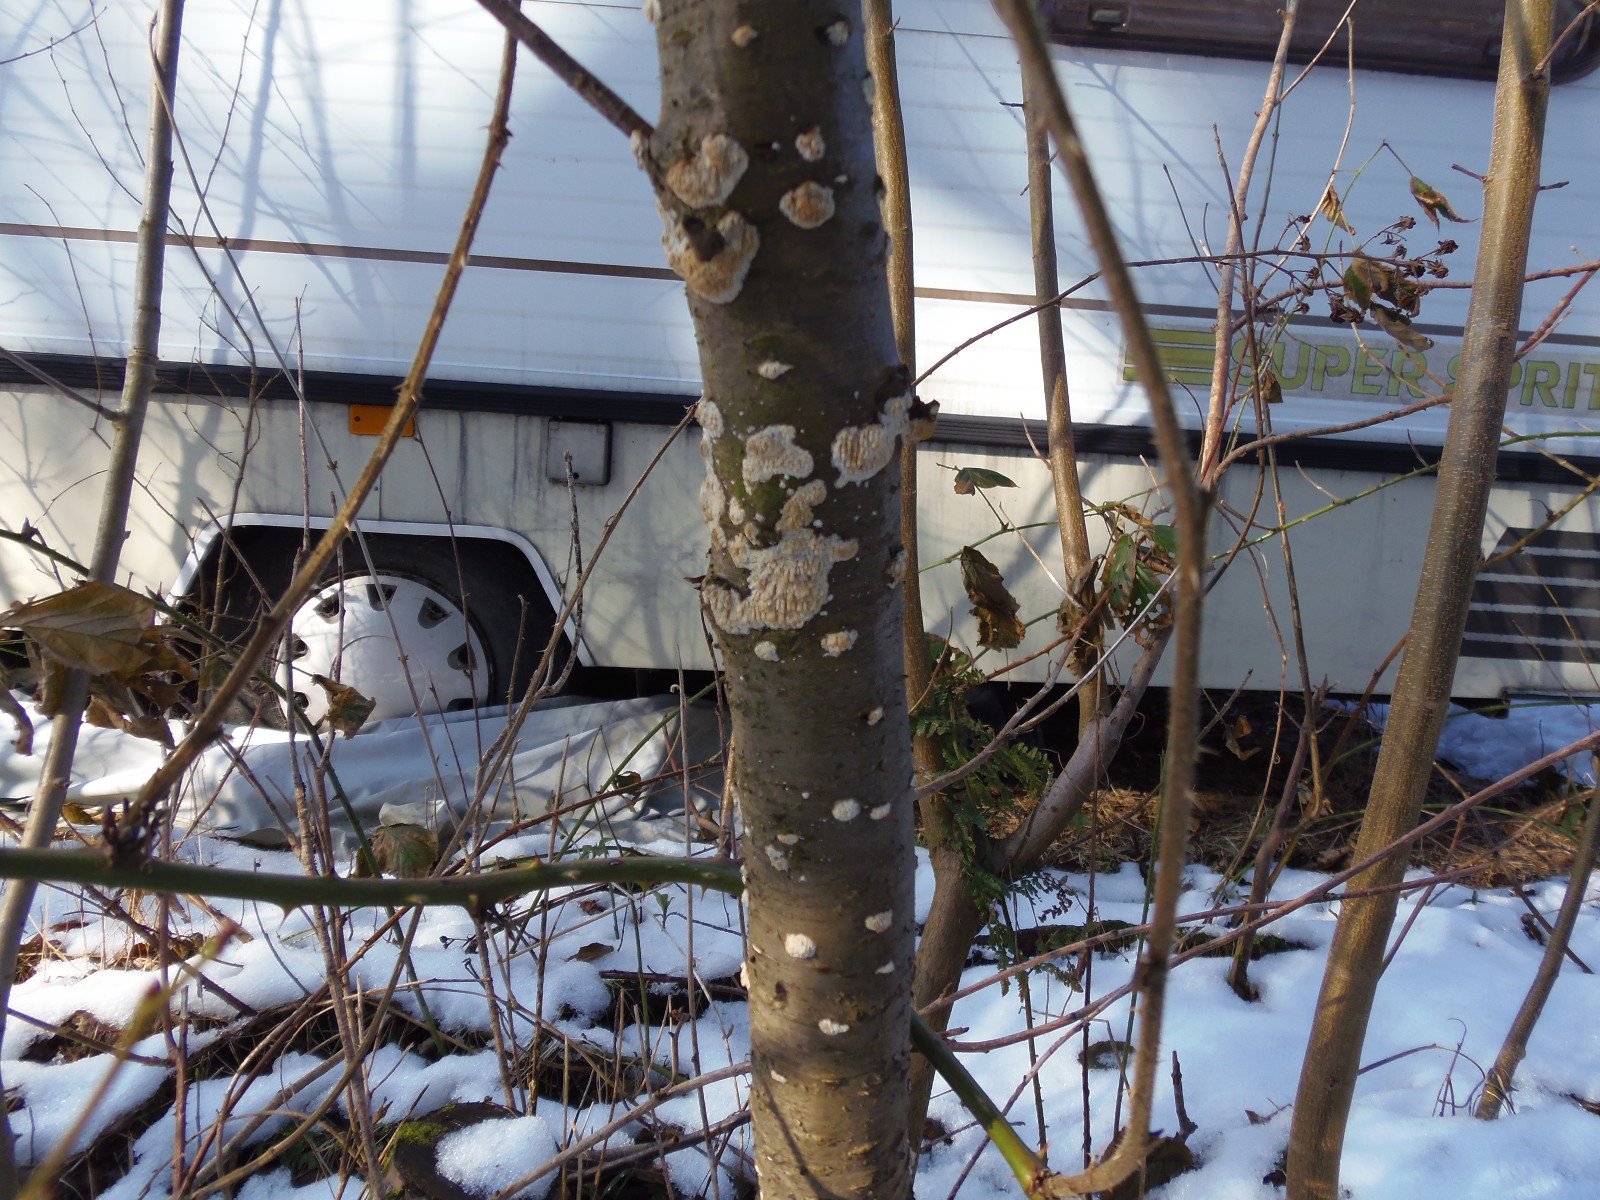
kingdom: Fungi
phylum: Basidiomycota
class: Agaricomycetes
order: Hymenochaetales
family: Schizoporaceae
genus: Xylodon
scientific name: Xylodon radula
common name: grovtandet kalkskind
